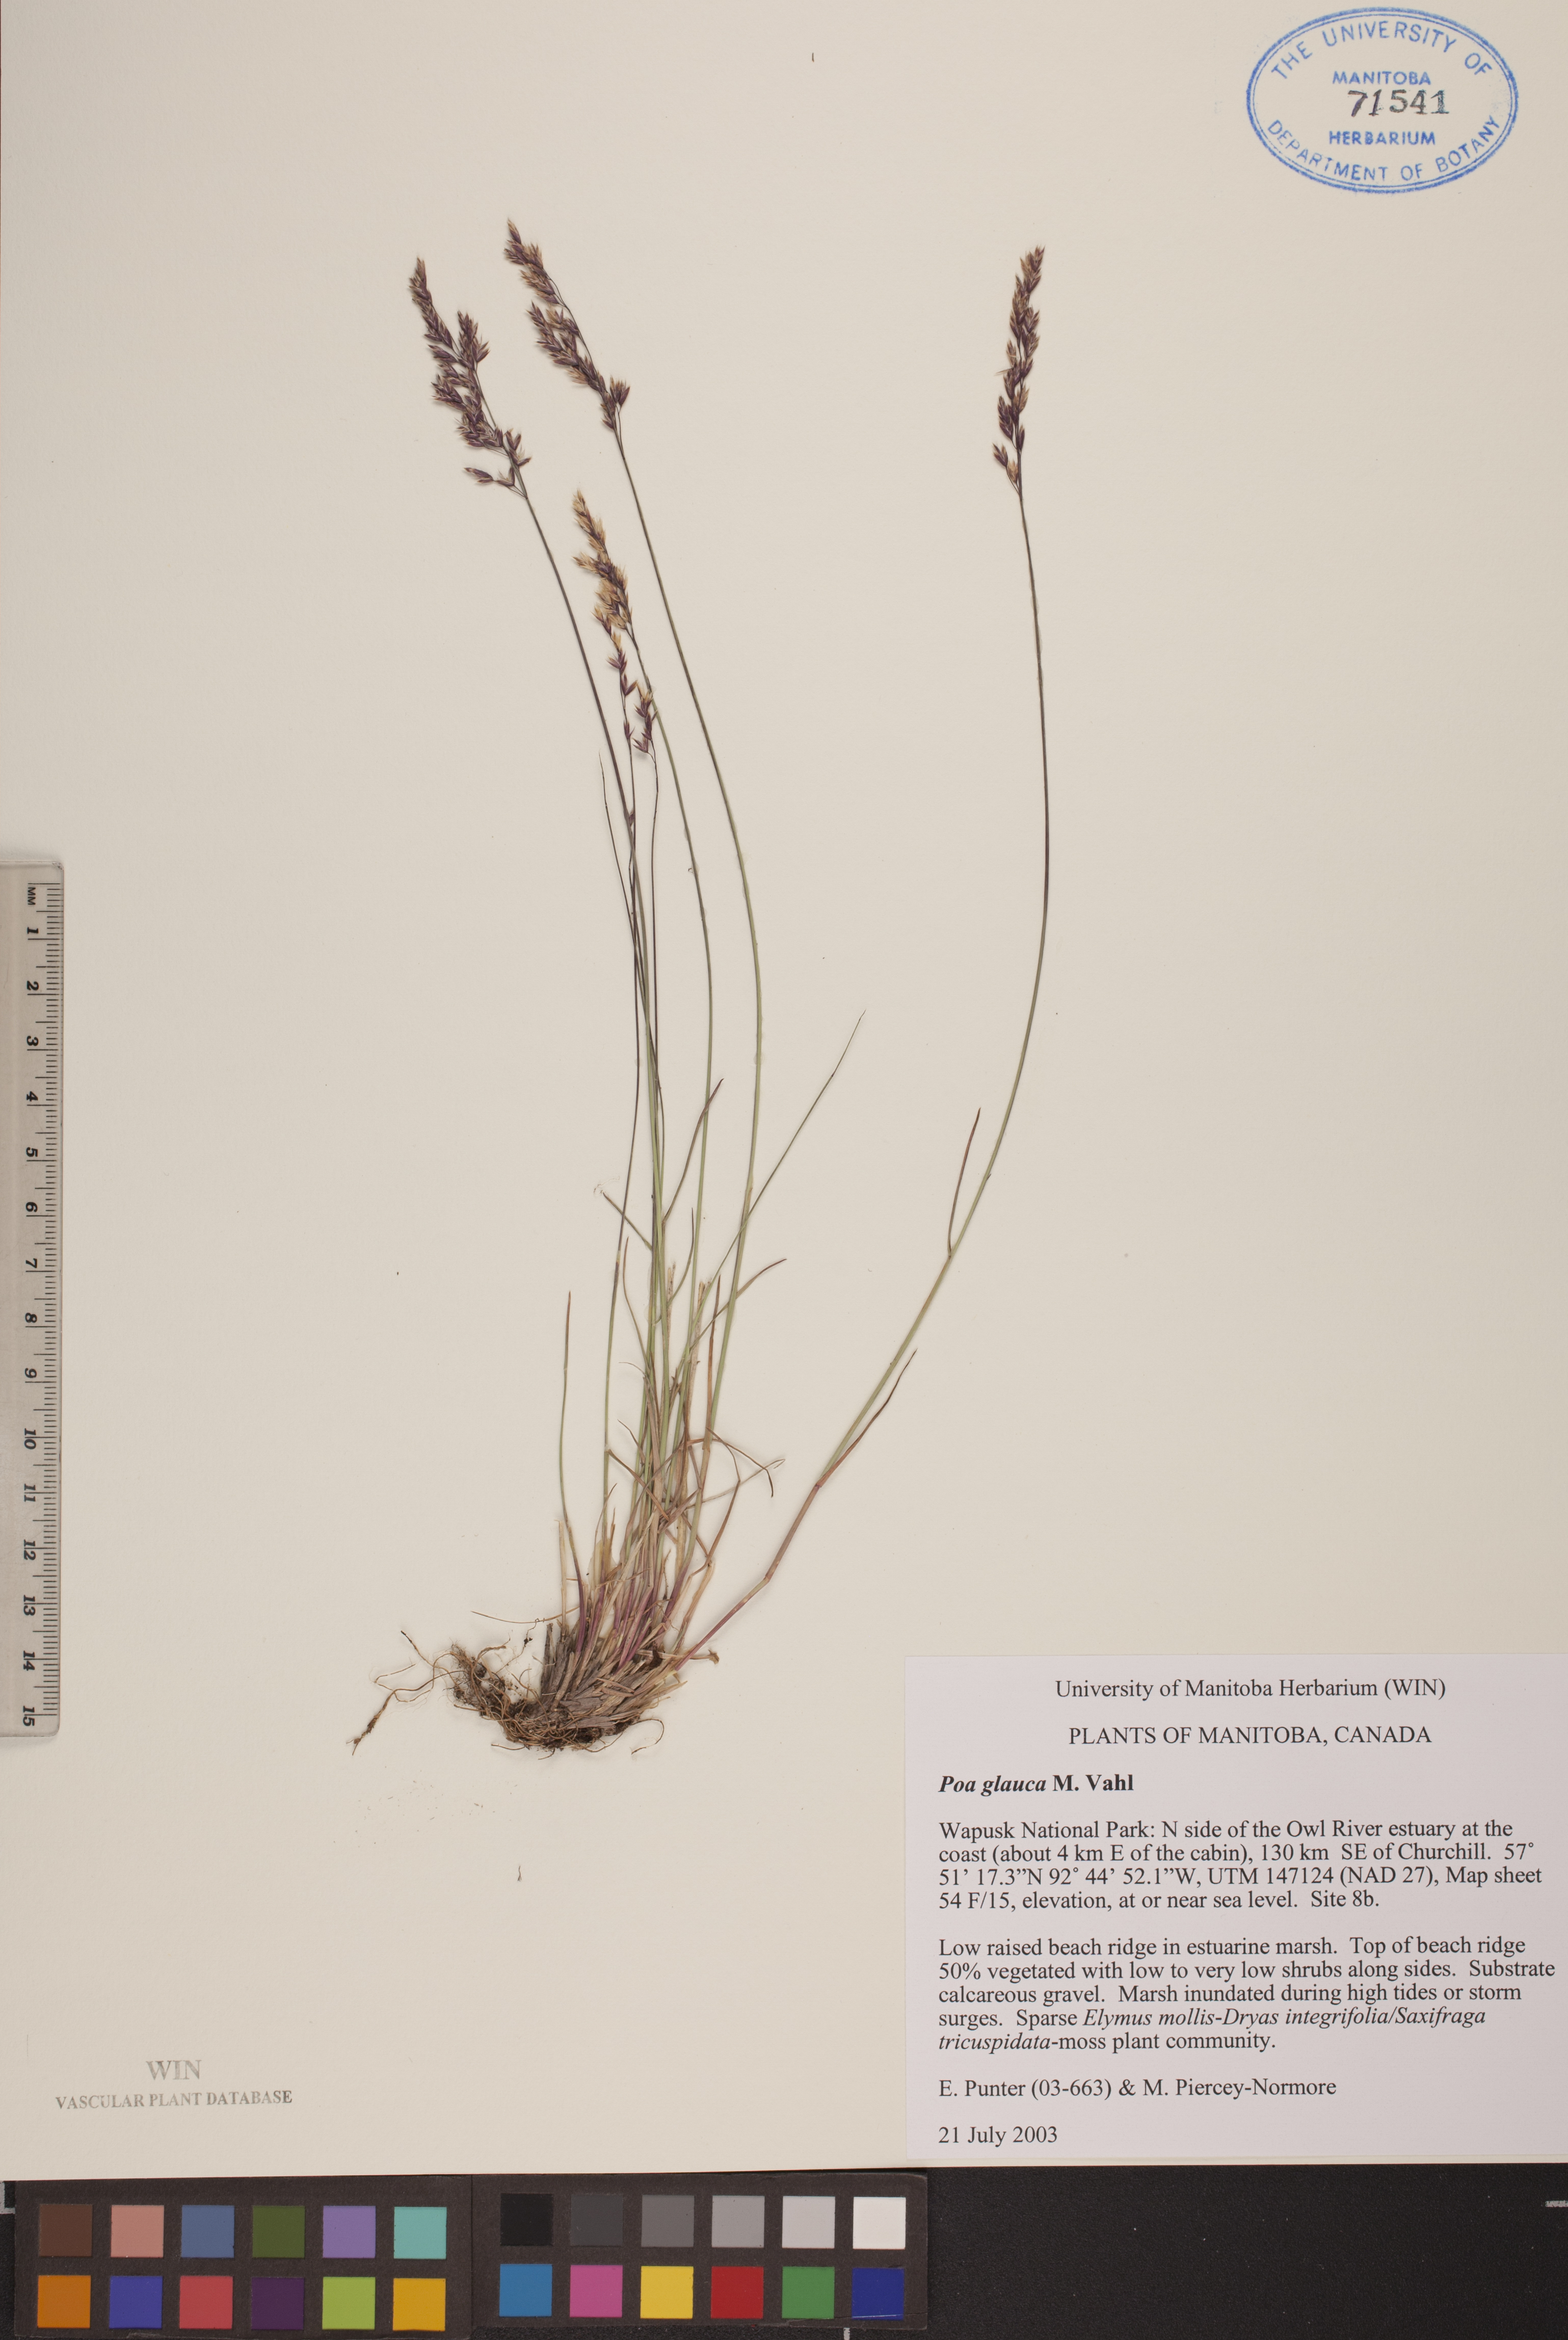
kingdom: Plantae
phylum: Tracheophyta
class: Liliopsida
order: Poales
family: Poaceae
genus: Poa
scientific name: Poa glauca
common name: Glaucous bluegrass
